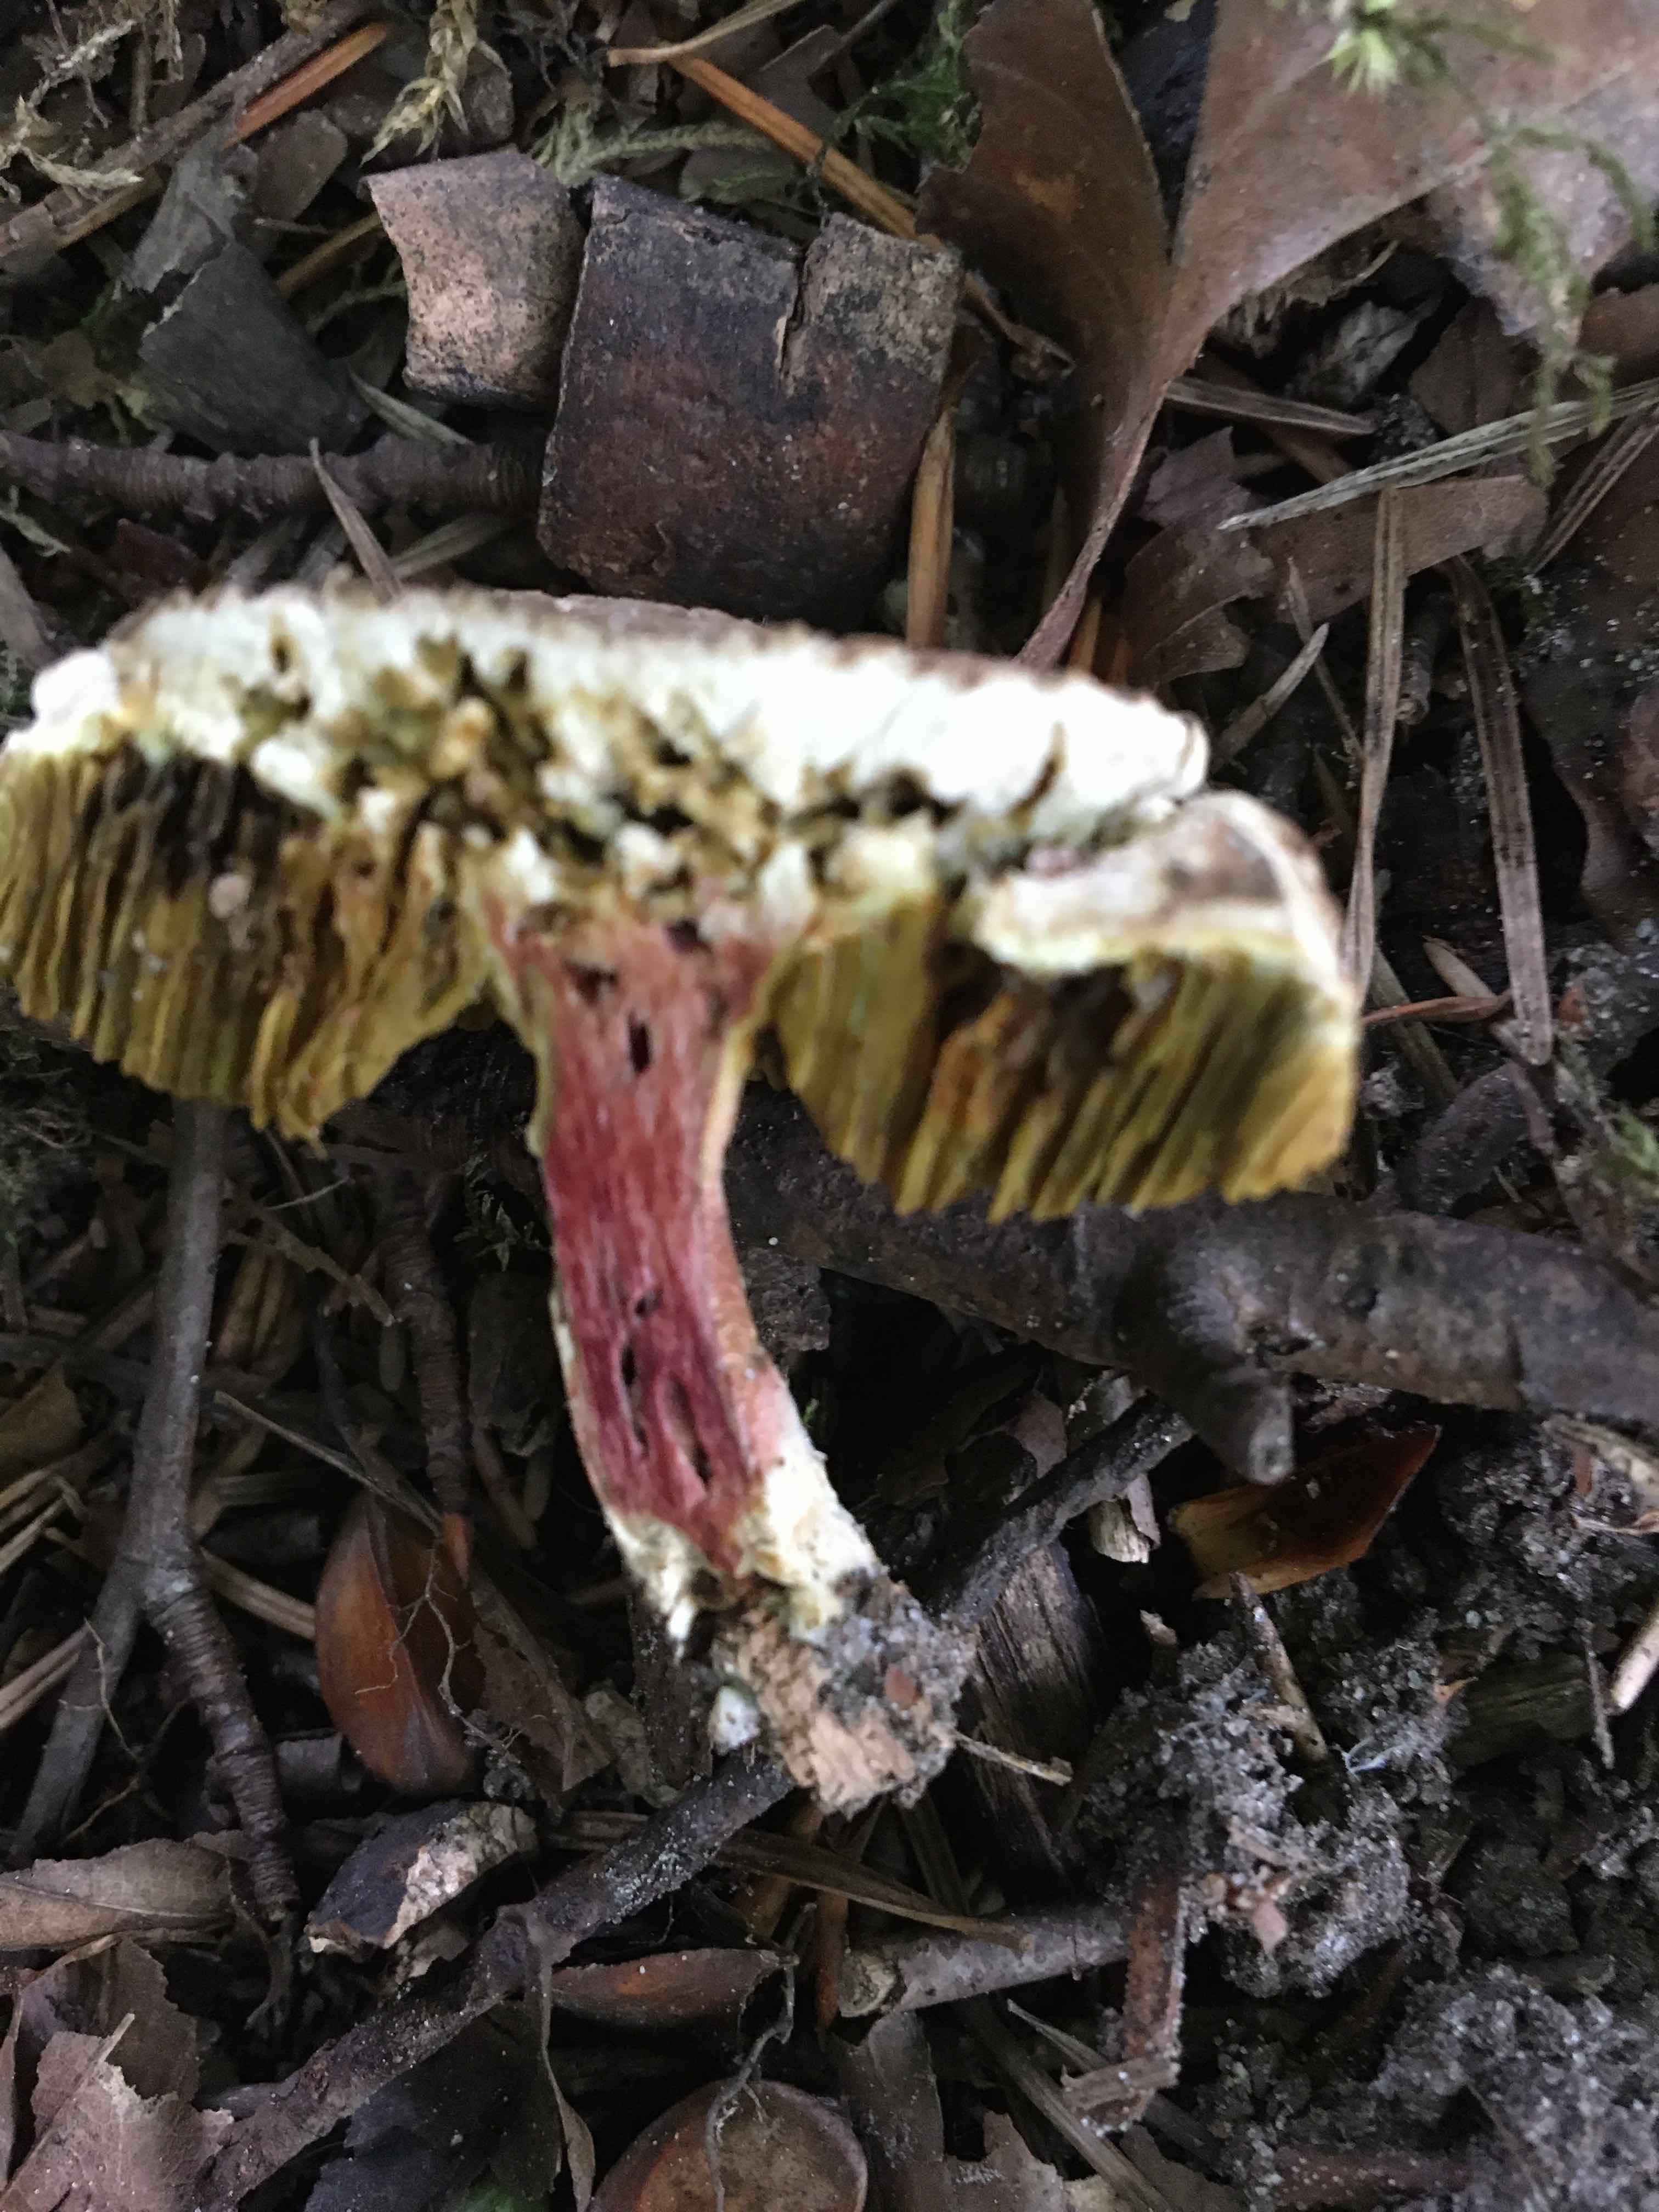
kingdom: Fungi
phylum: Basidiomycota
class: Agaricomycetes
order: Boletales
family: Boletaceae
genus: Xerocomellus
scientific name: Xerocomellus
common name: dværgrørhat
